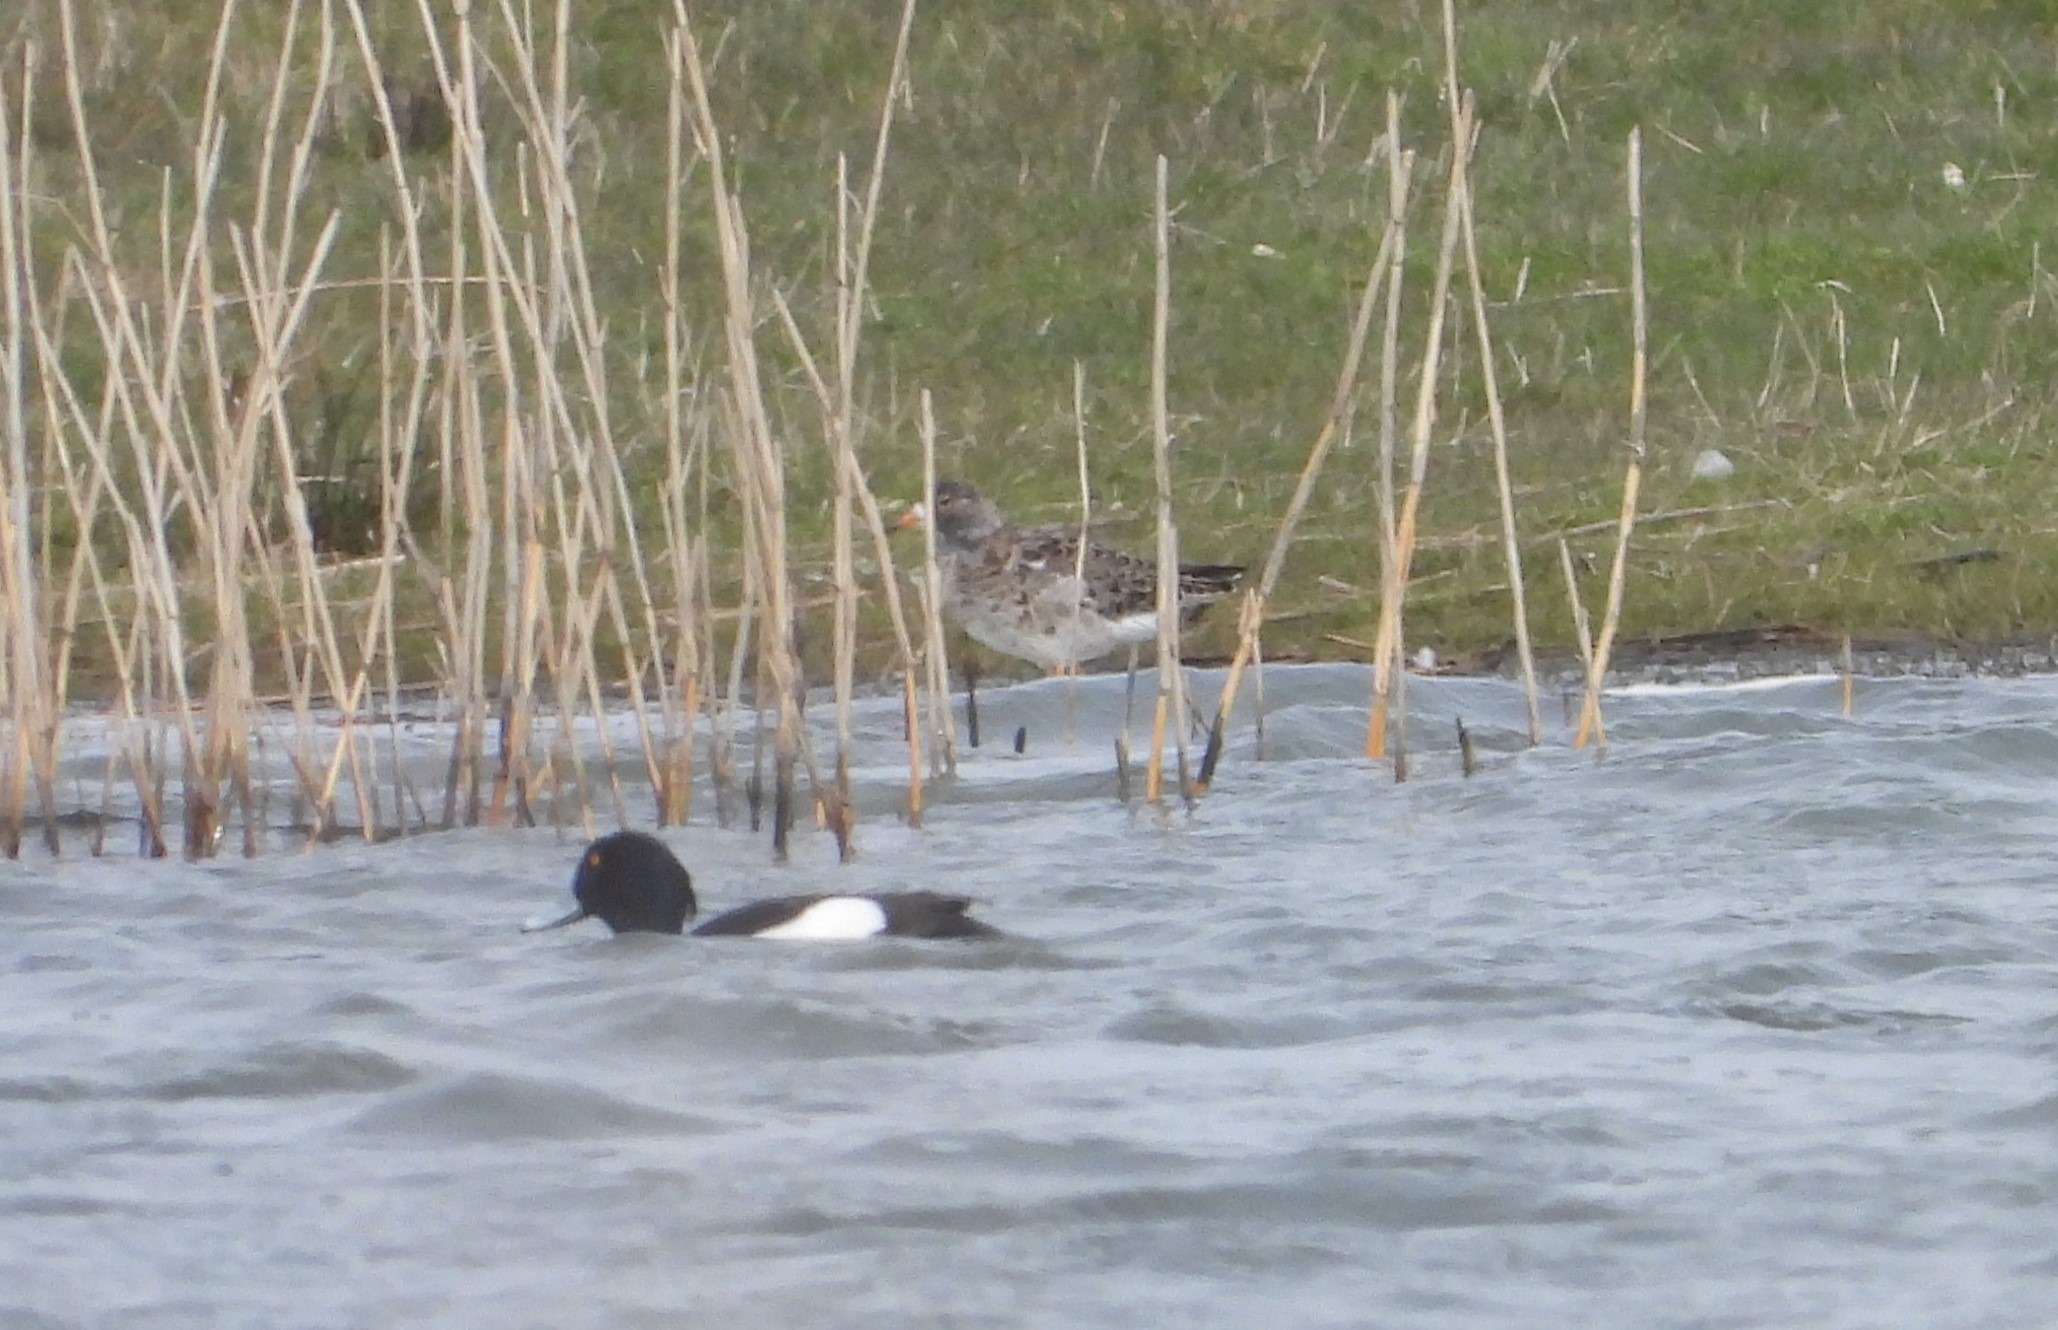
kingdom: Animalia
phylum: Chordata
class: Aves
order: Charadriiformes
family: Scolopacidae
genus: Calidris
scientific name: Calidris pugnax
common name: Brushane
